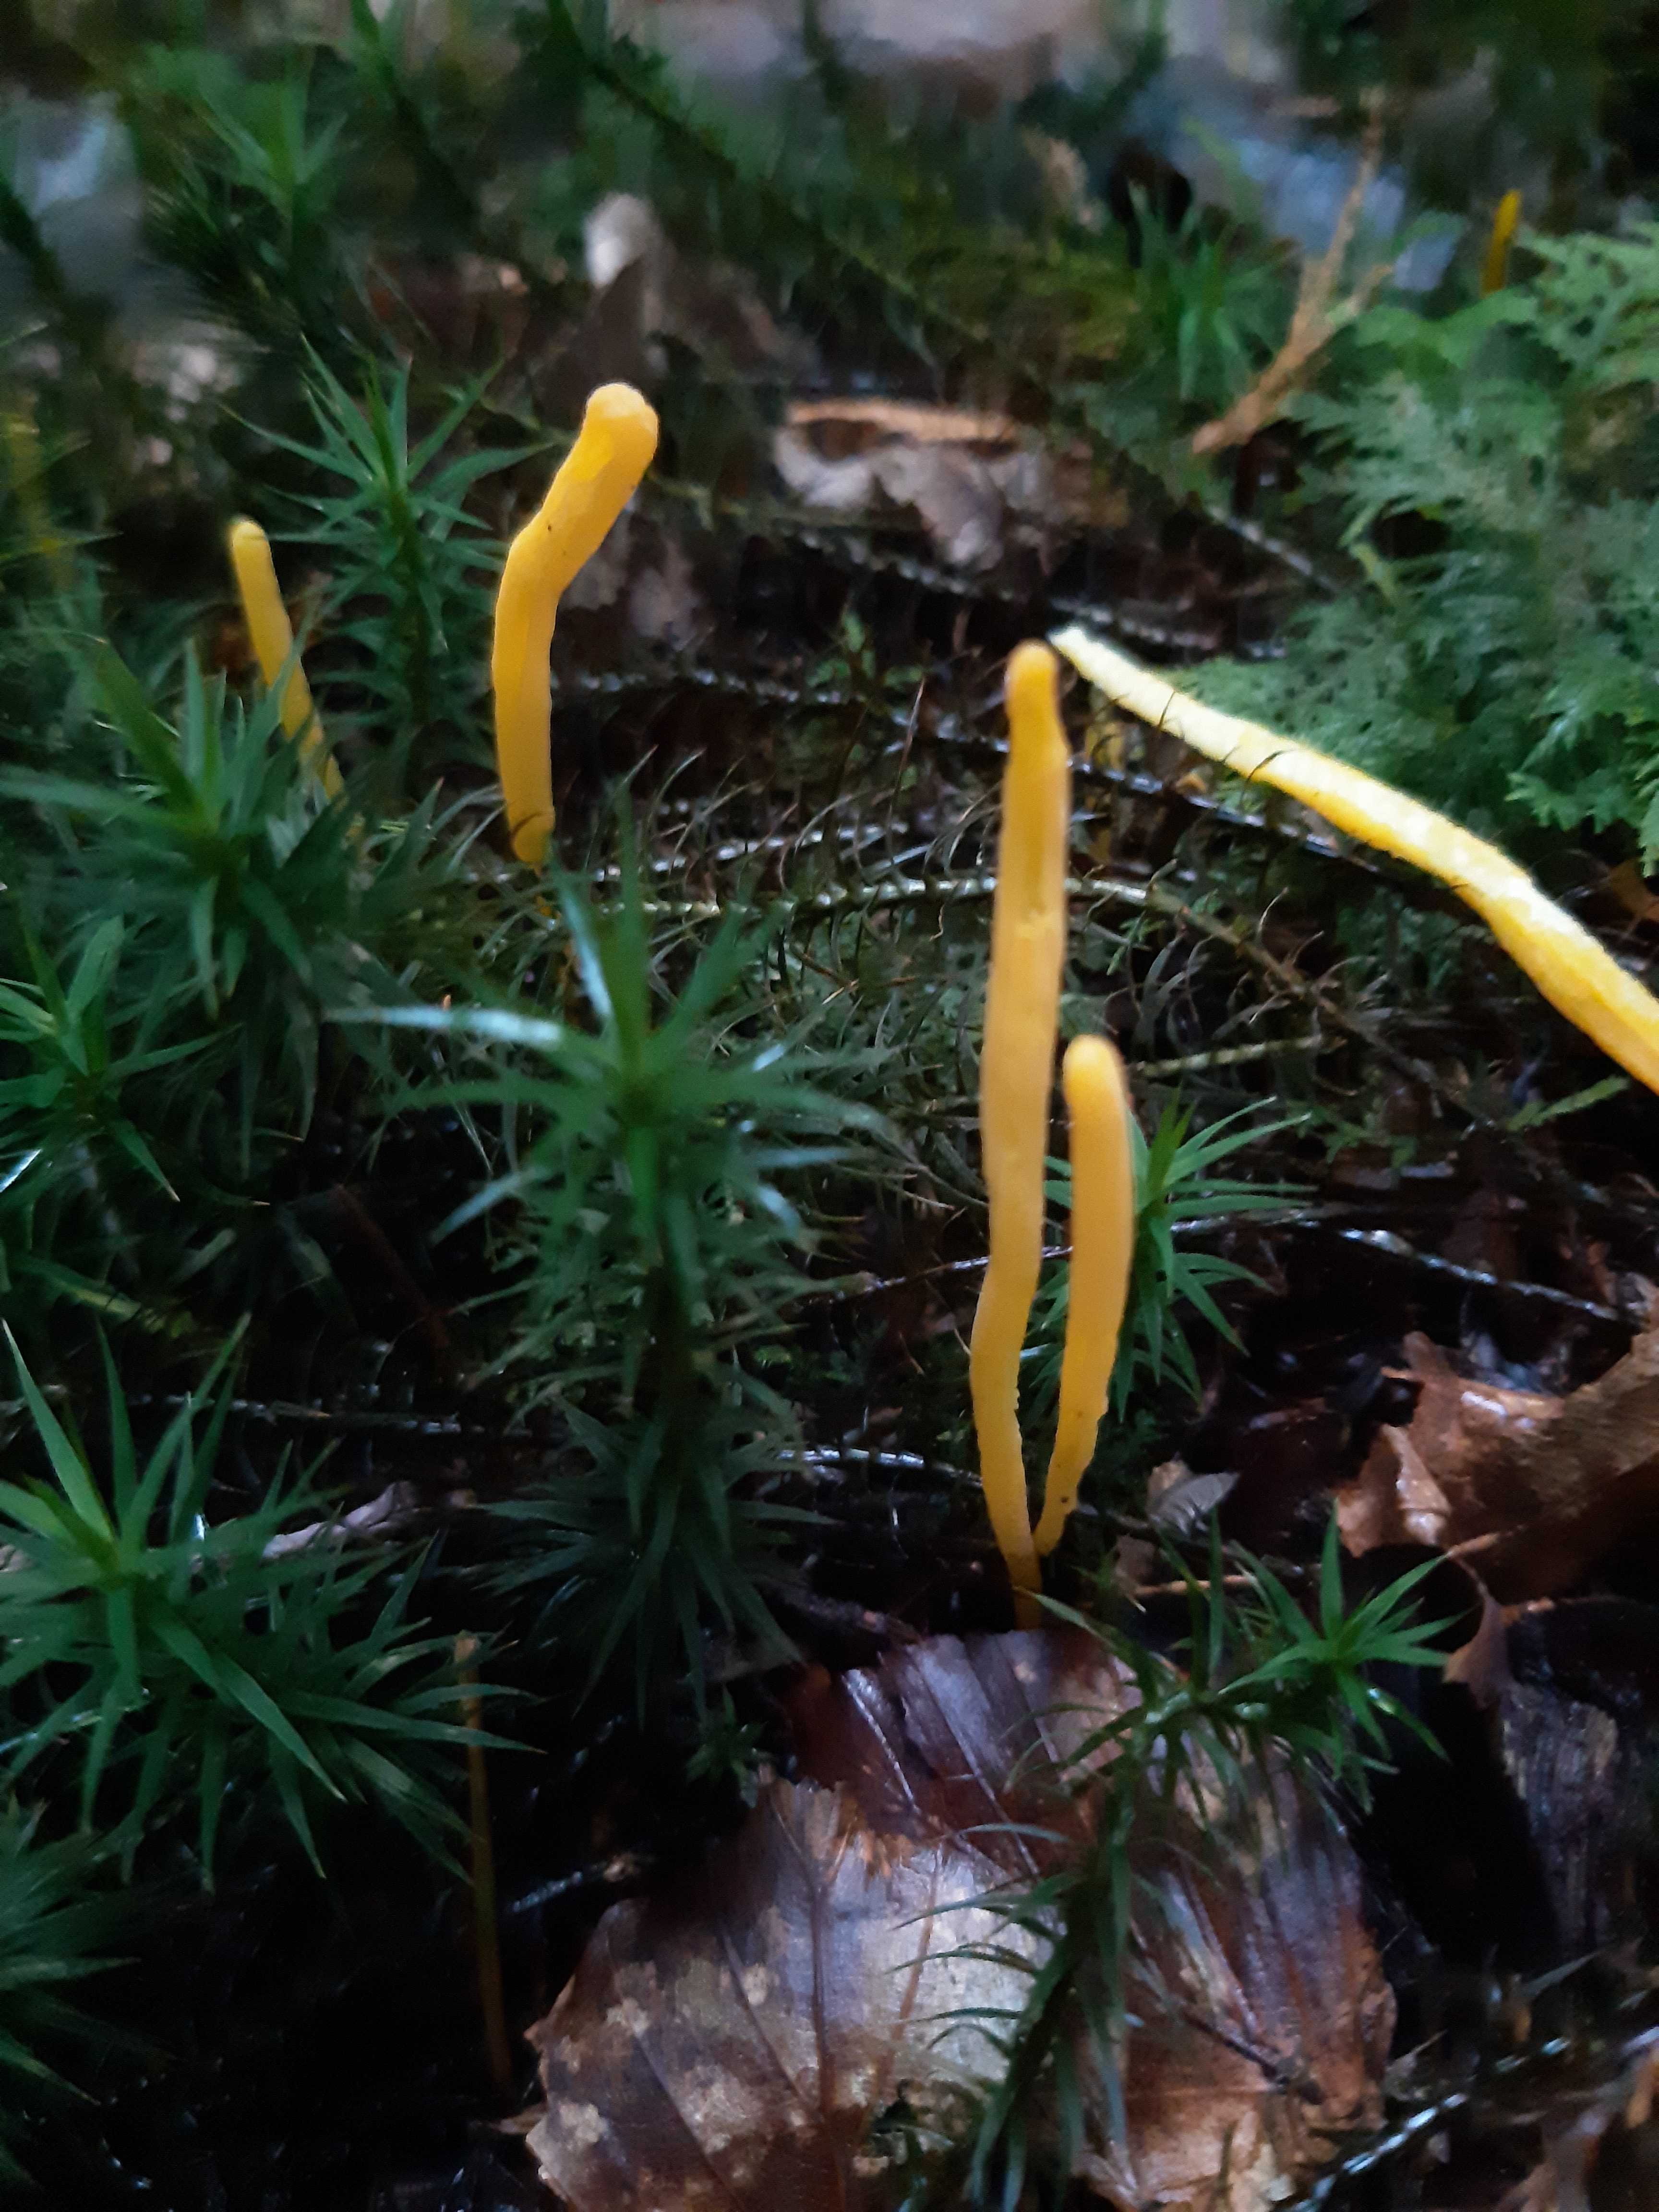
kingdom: Fungi
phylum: Basidiomycota
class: Agaricomycetes
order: Agaricales
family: Clavariaceae
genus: Clavulinopsis
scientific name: Clavulinopsis
